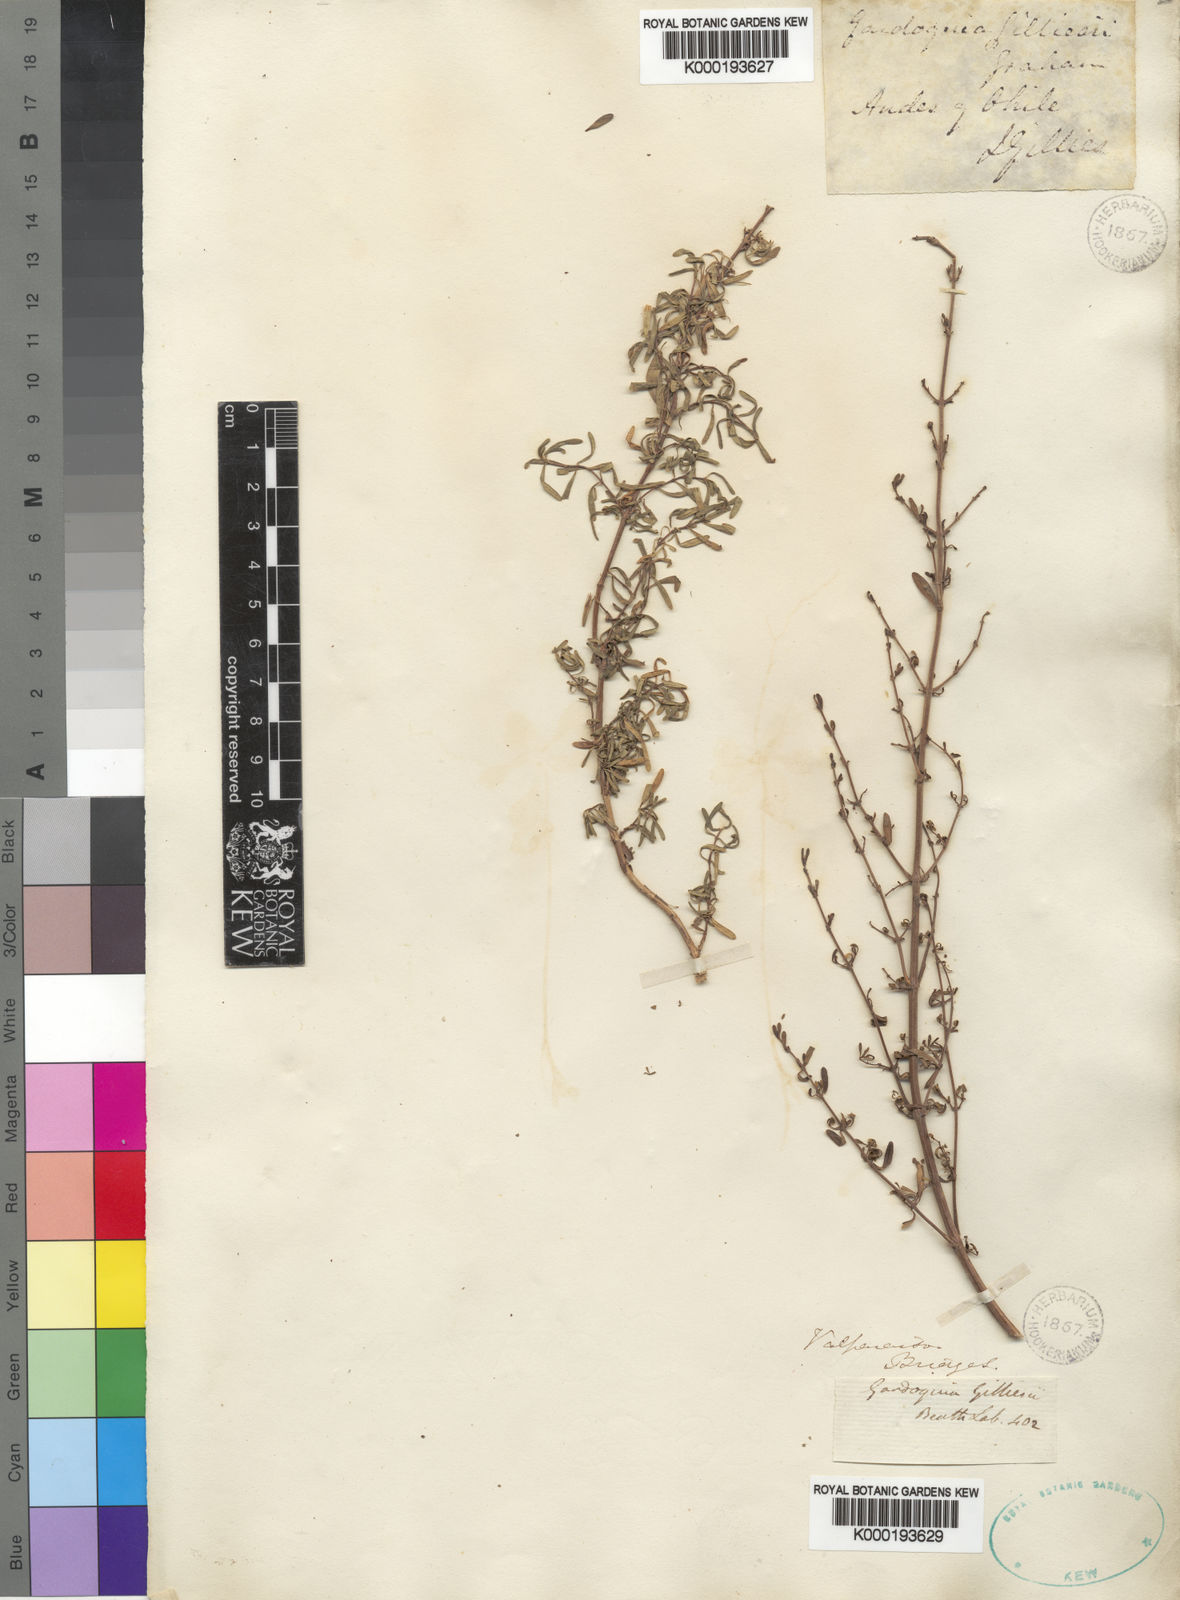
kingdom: Plantae
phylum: Tracheophyta
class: Magnoliopsida
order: Lamiales
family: Lamiaceae
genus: Clinopodium
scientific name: Clinopodium gilliesii
